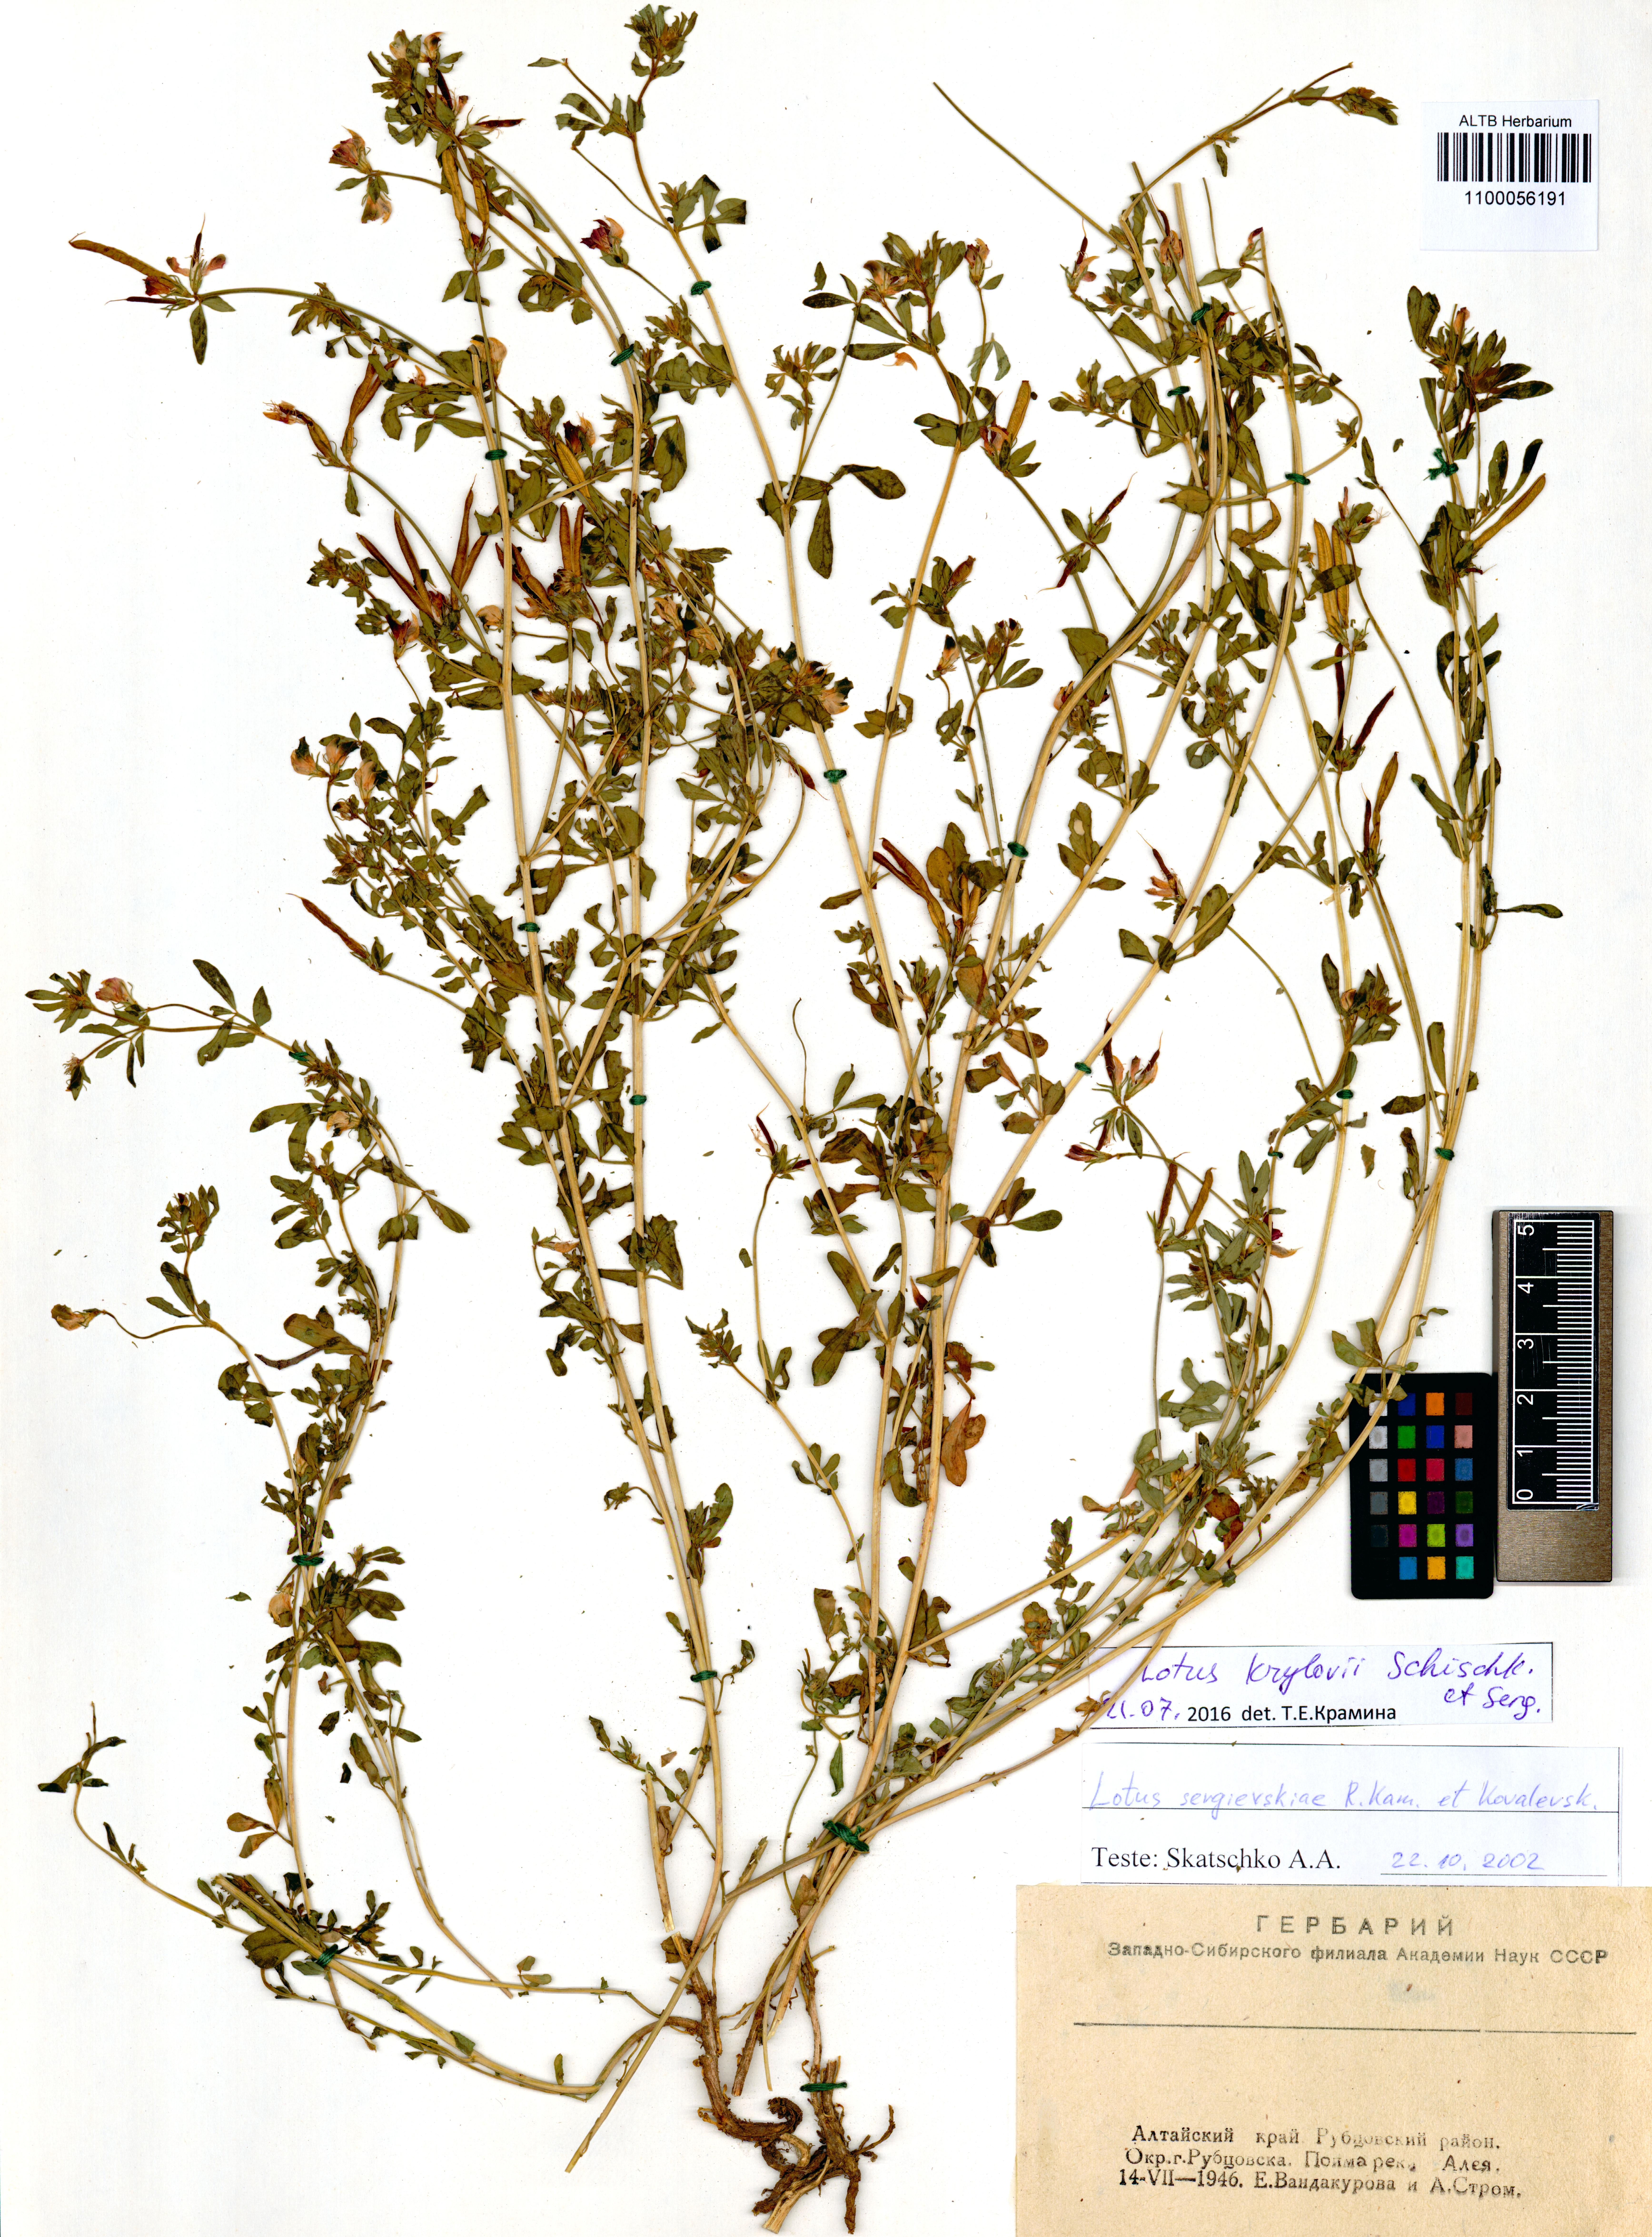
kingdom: Plantae
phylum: Tracheophyta
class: Magnoliopsida
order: Fabales
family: Fabaceae
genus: Lotus
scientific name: Lotus krylovii
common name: Krylov's bird's-foot trefoil
